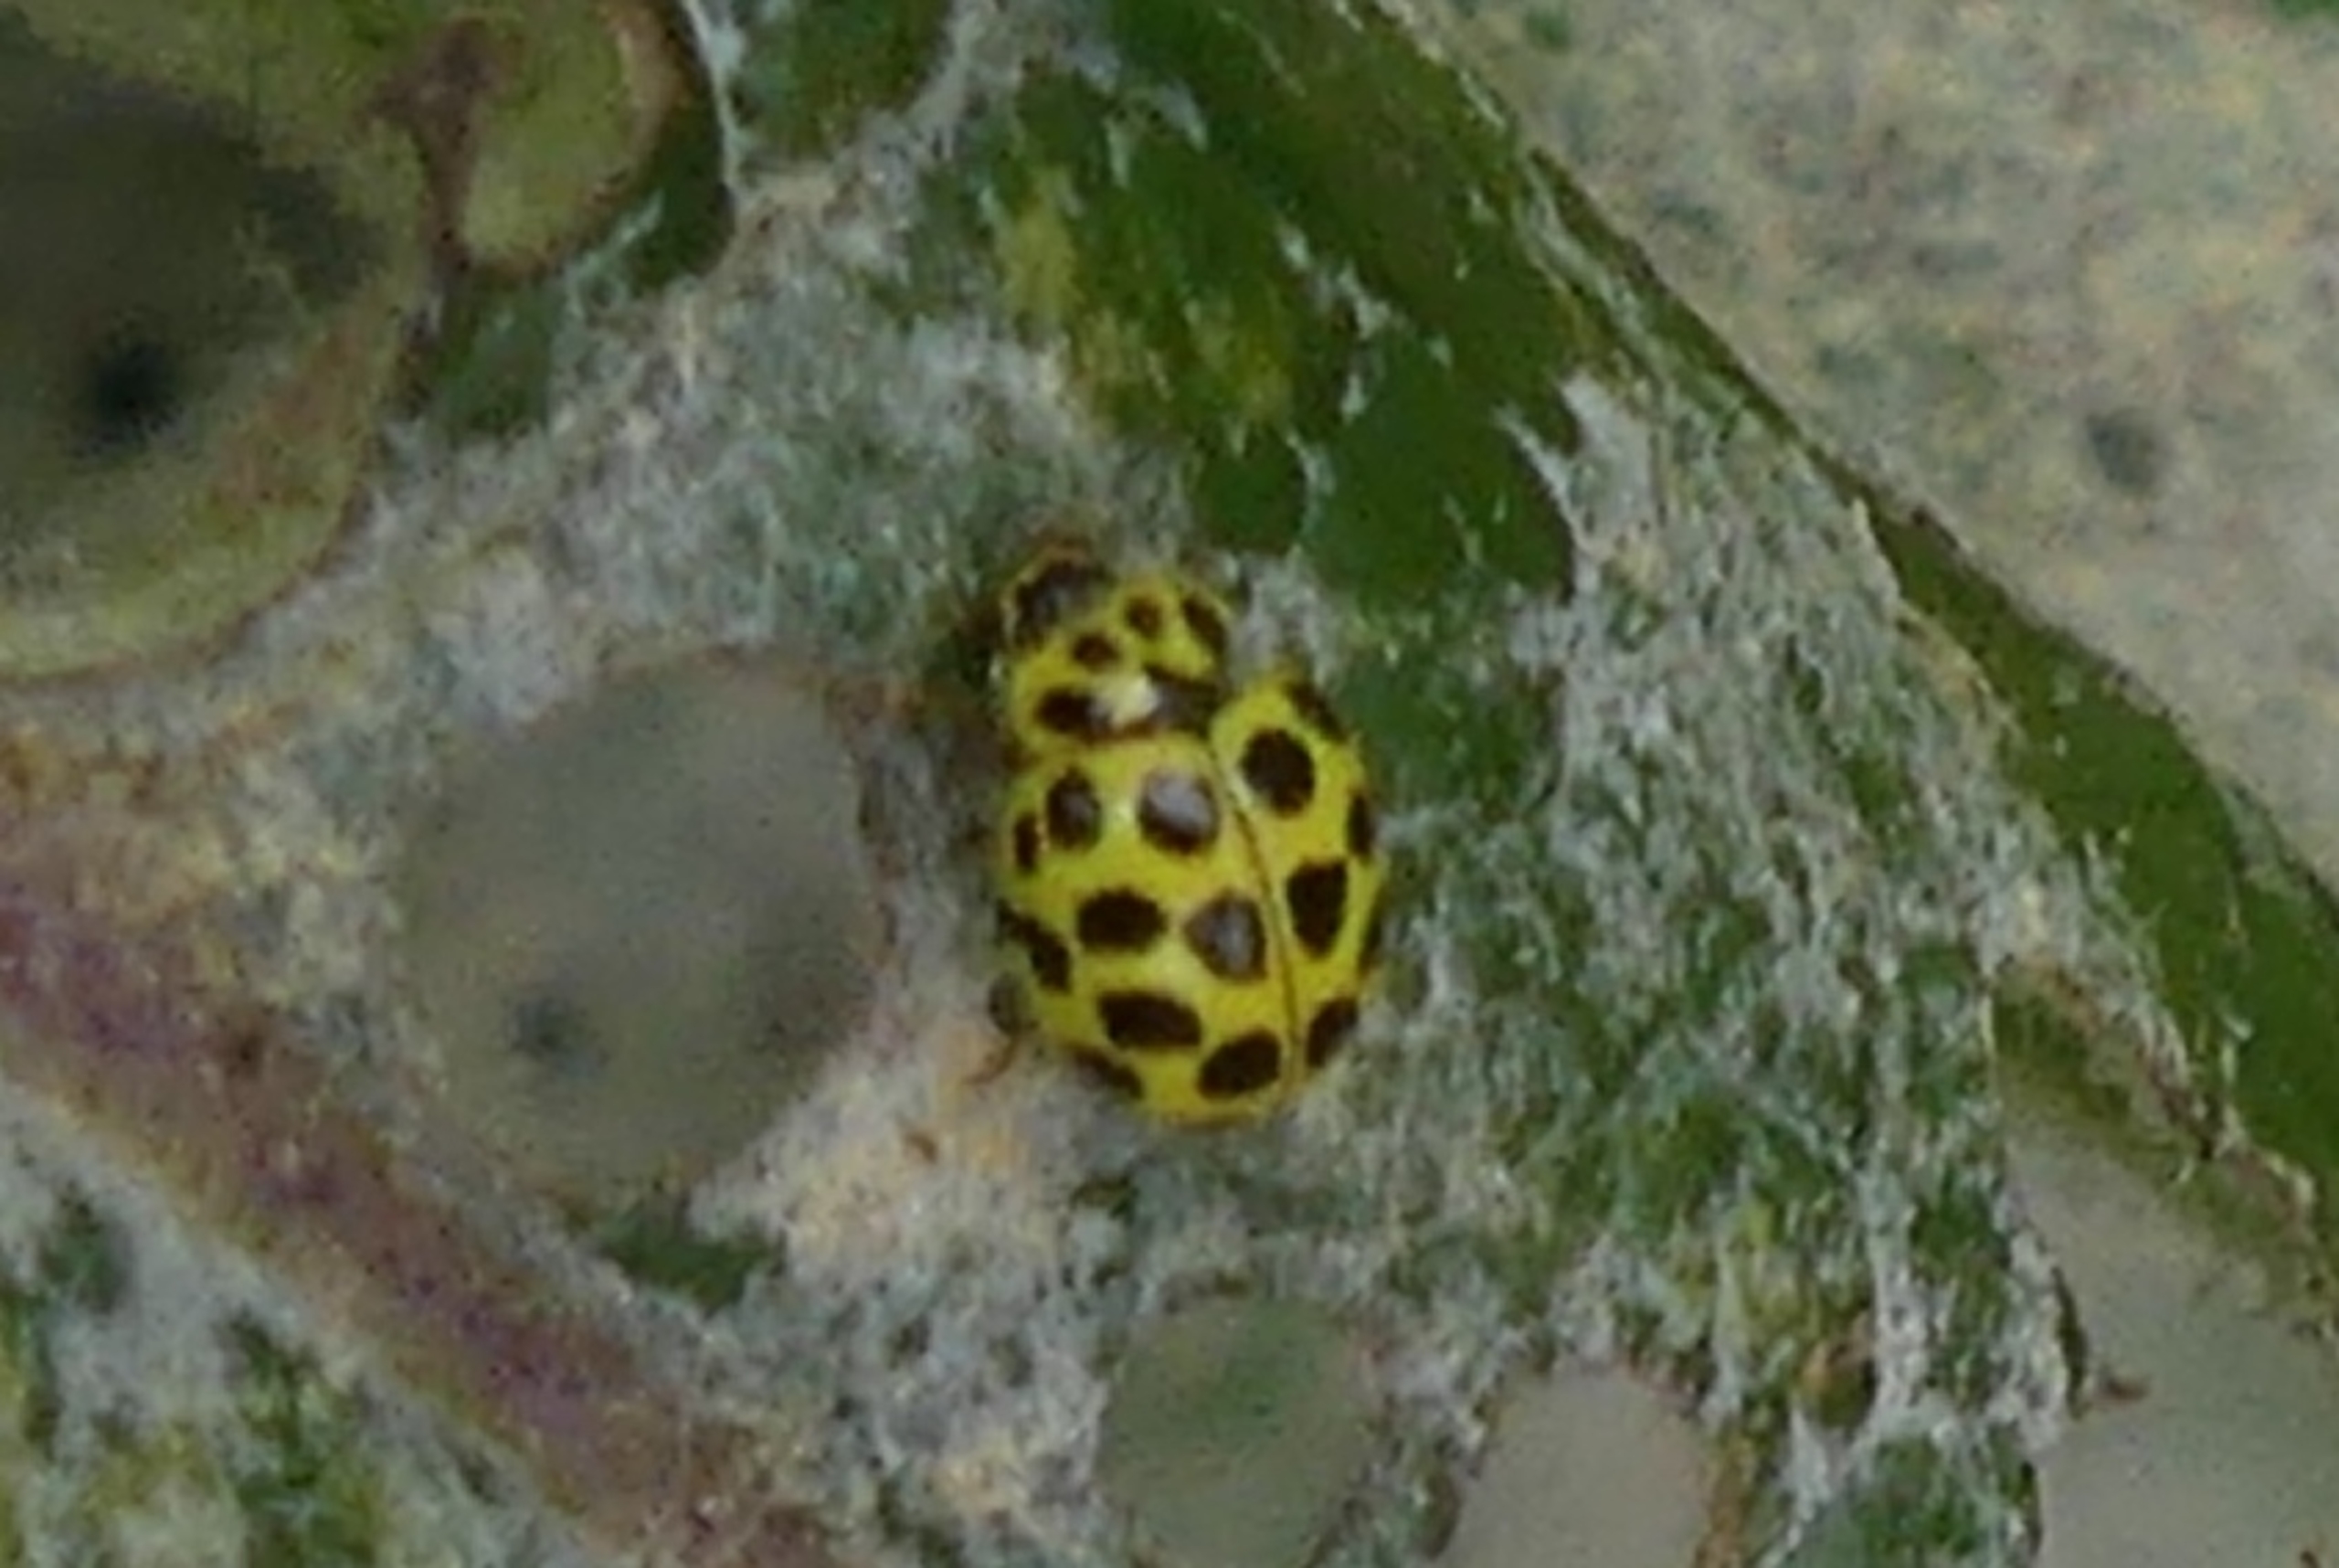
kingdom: Animalia
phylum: Arthropoda
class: Insecta
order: Coleoptera
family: Coccinellidae
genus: Psyllobora
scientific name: Psyllobora vigintiduopunctata
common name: Toogtyveplettet mariehøne
